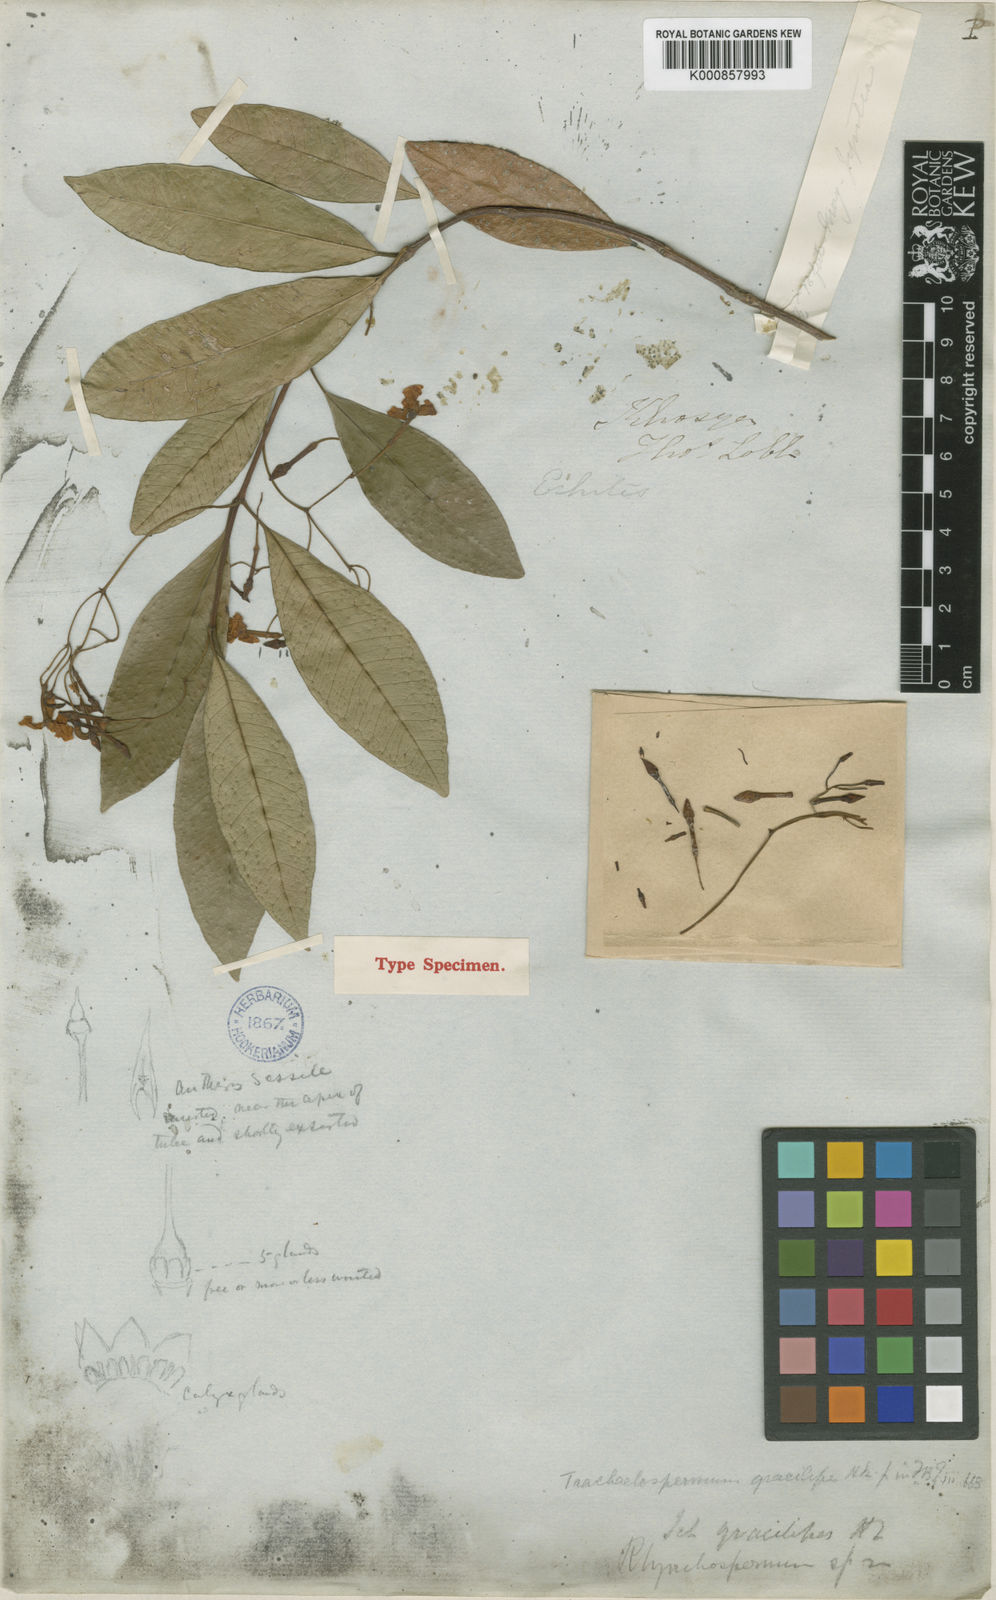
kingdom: Plantae
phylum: Tracheophyta
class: Magnoliopsida
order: Gentianales
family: Apocynaceae
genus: Trachelospermum
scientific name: Trachelospermum gracilipes
